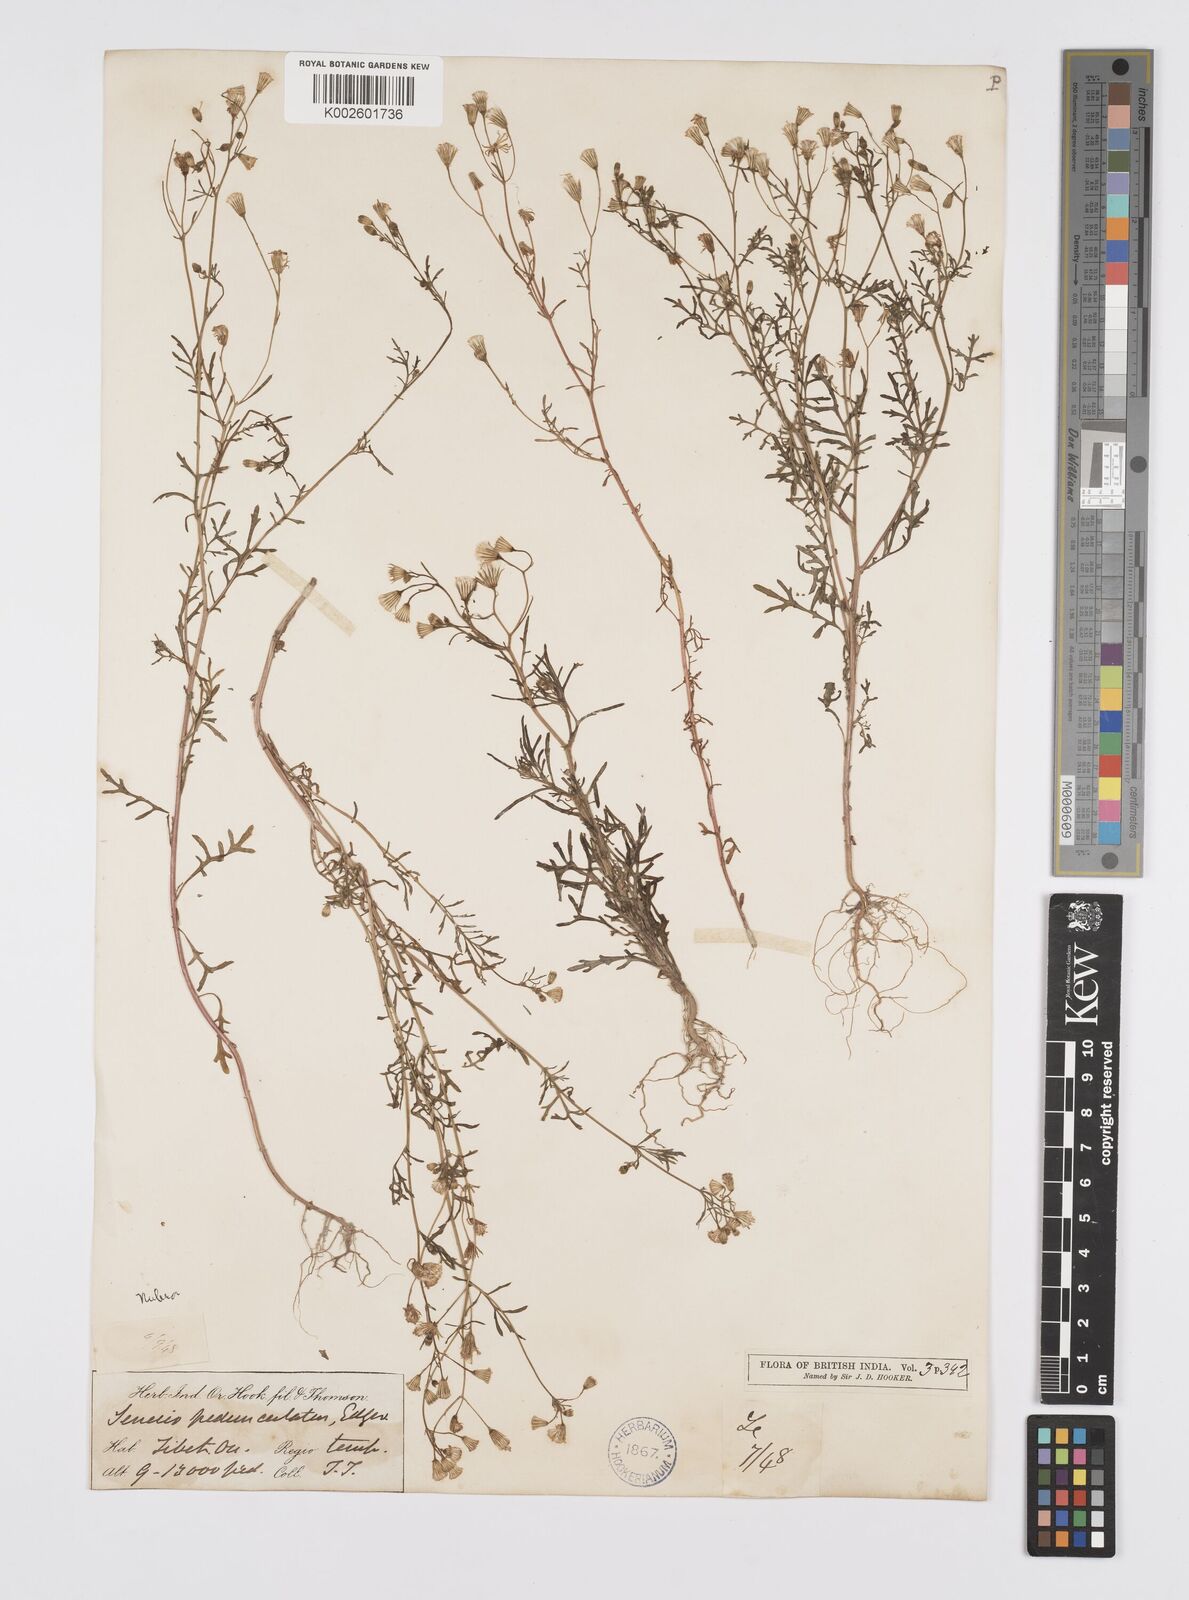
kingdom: Plantae
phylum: Tracheophyta
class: Magnoliopsida
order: Asterales
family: Asteraceae
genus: Senecio
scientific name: Senecio krascheninnikovii
